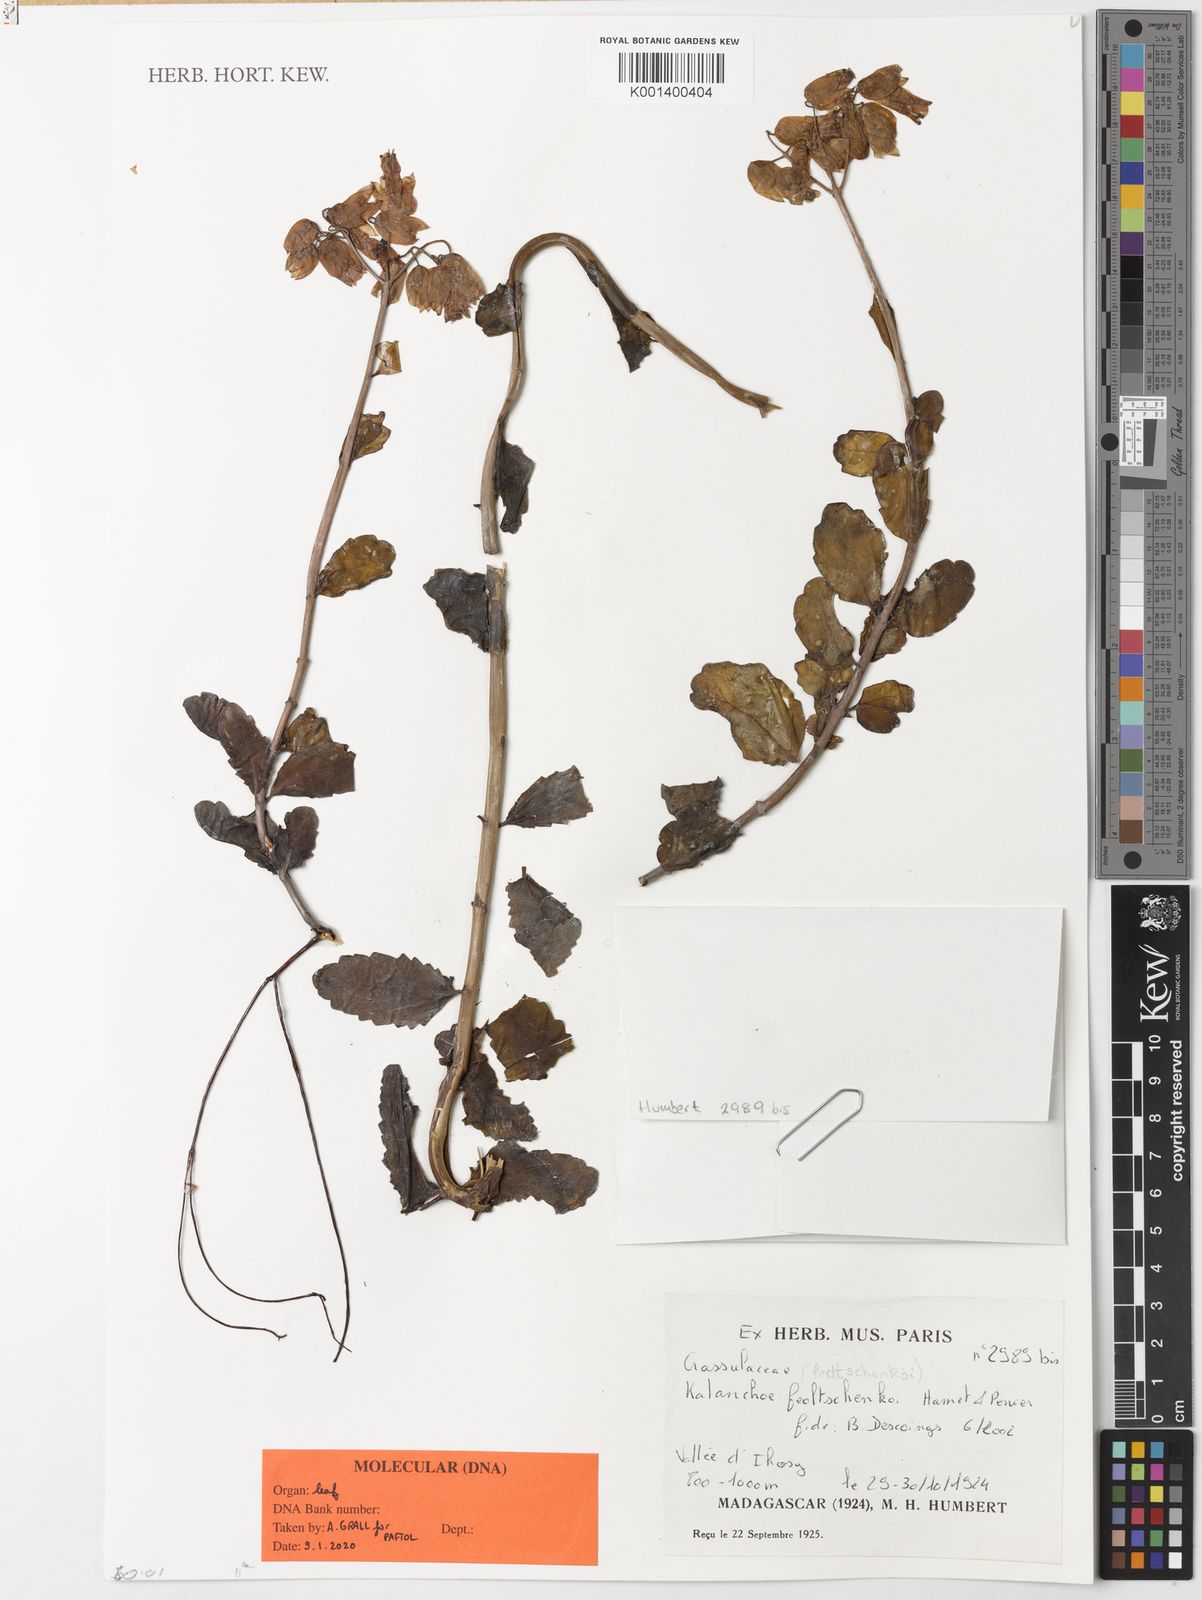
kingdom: Plantae
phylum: Tracheophyta
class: Magnoliopsida
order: Saxifragales
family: Crassulaceae
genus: Kalanchoe
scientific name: Kalanchoe fedtschenkoi
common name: Lavender scallops
